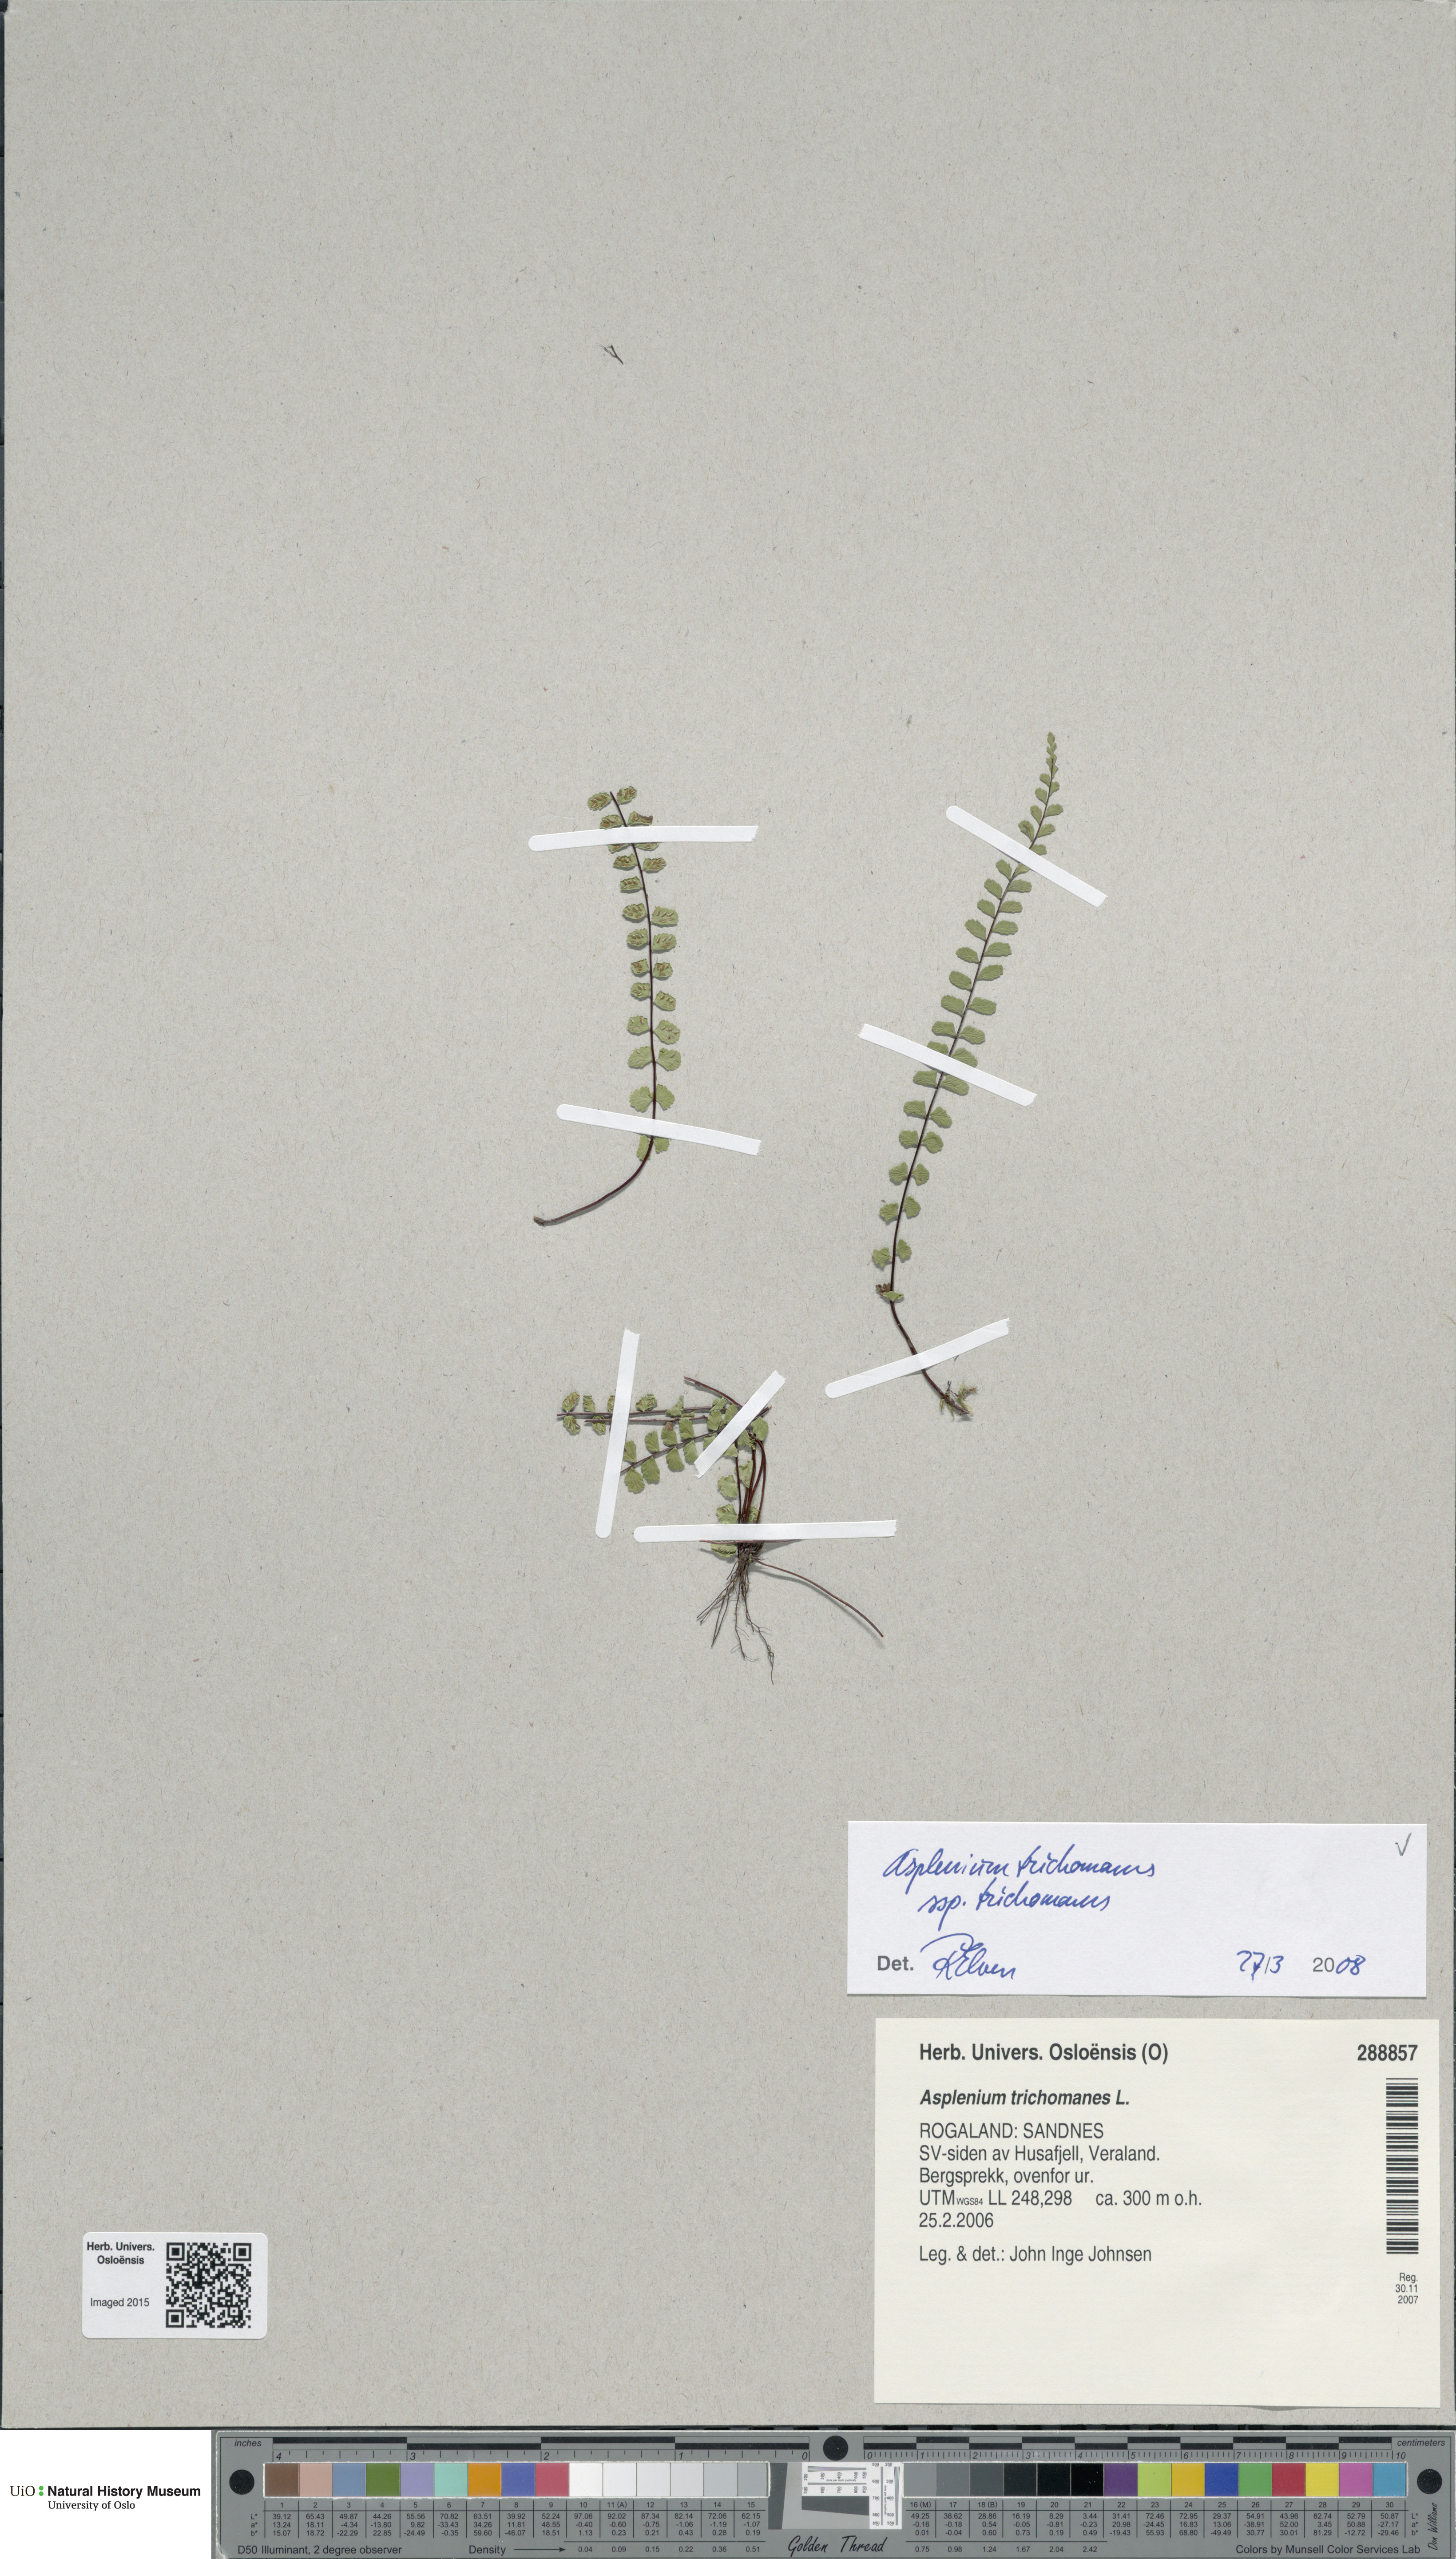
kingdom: Plantae
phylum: Tracheophyta
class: Polypodiopsida
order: Polypodiales
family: Aspleniaceae
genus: Asplenium
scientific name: Asplenium trichomanes
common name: Maidenhair spleenwort
